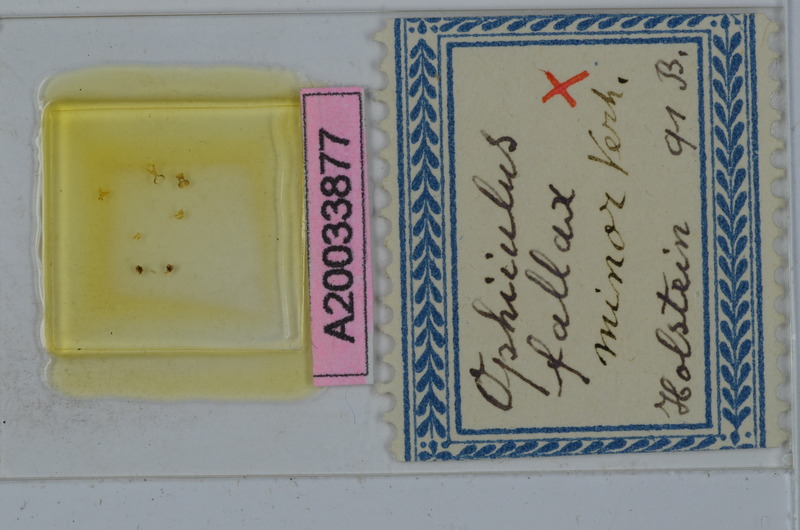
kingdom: Animalia
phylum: Arthropoda
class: Diplopoda
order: Julida
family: Julidae
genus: Ophyiulus
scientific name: Ophyiulus pilosus
